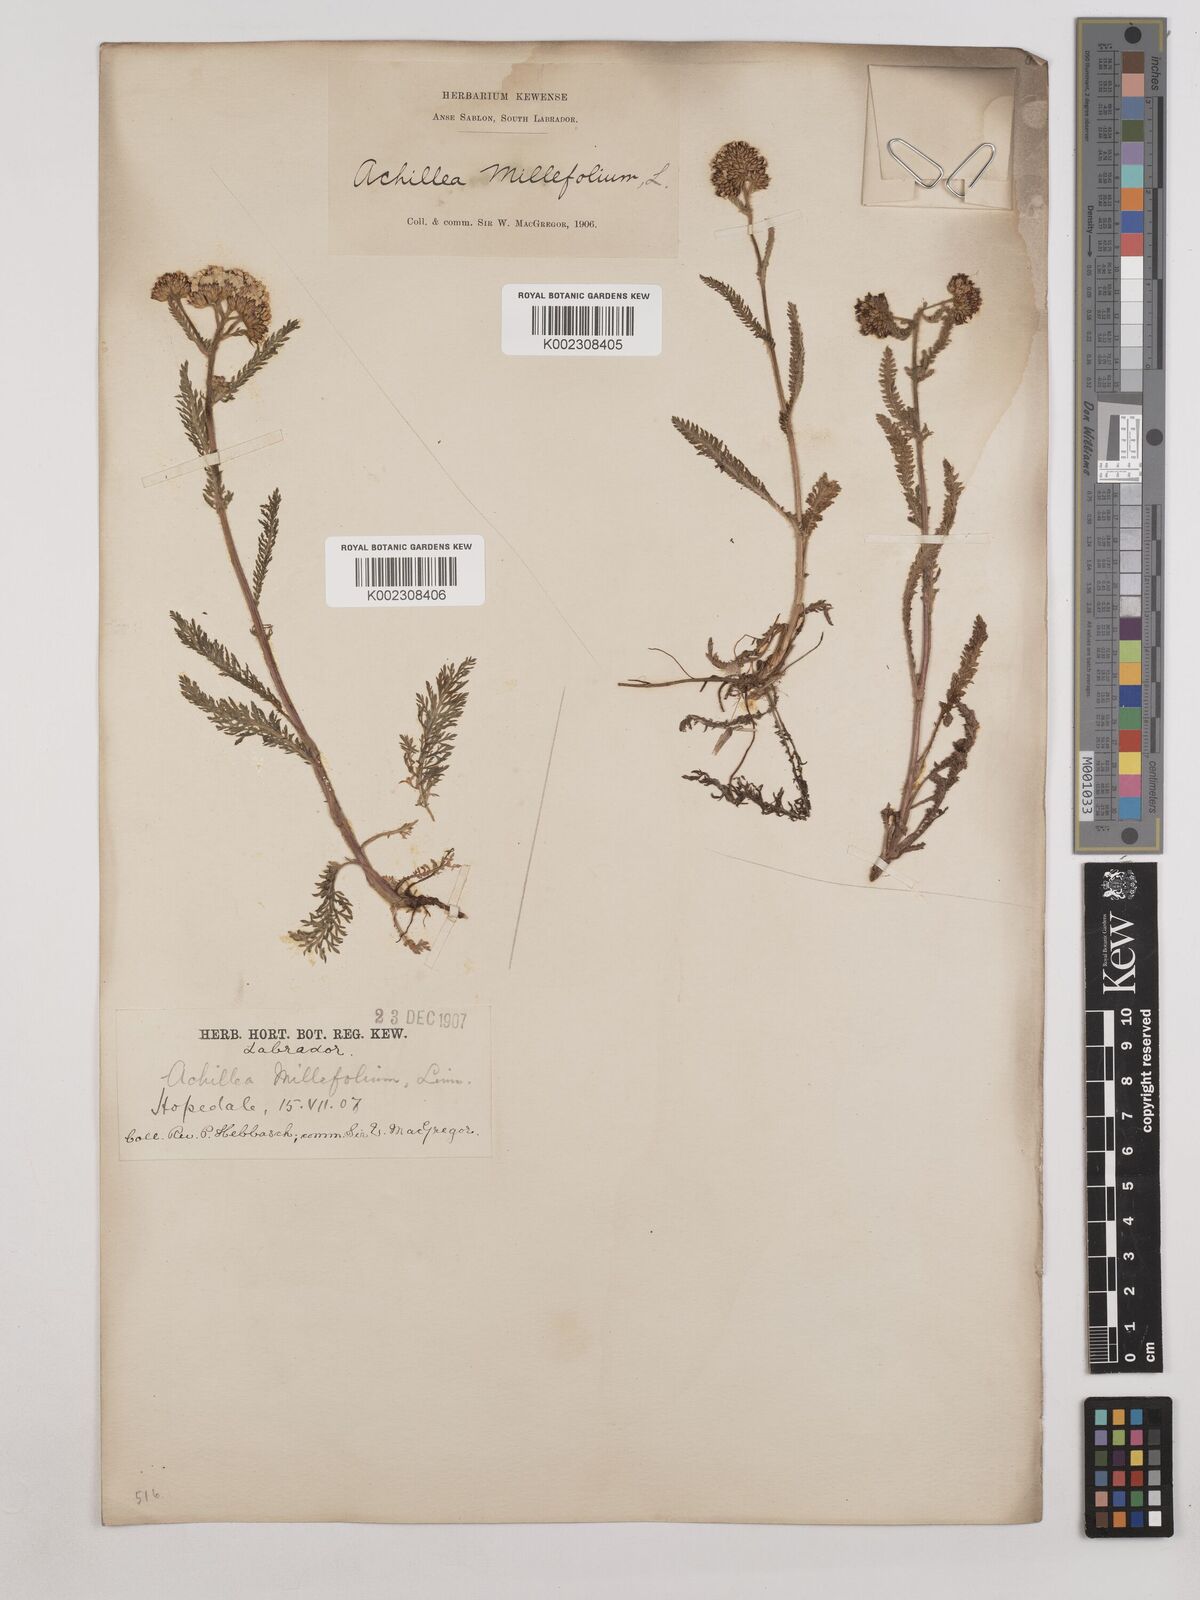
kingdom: Plantae
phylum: Tracheophyta
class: Magnoliopsida
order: Asterales
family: Asteraceae
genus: Achillea
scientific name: Achillea millefolium
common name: Yarrow
